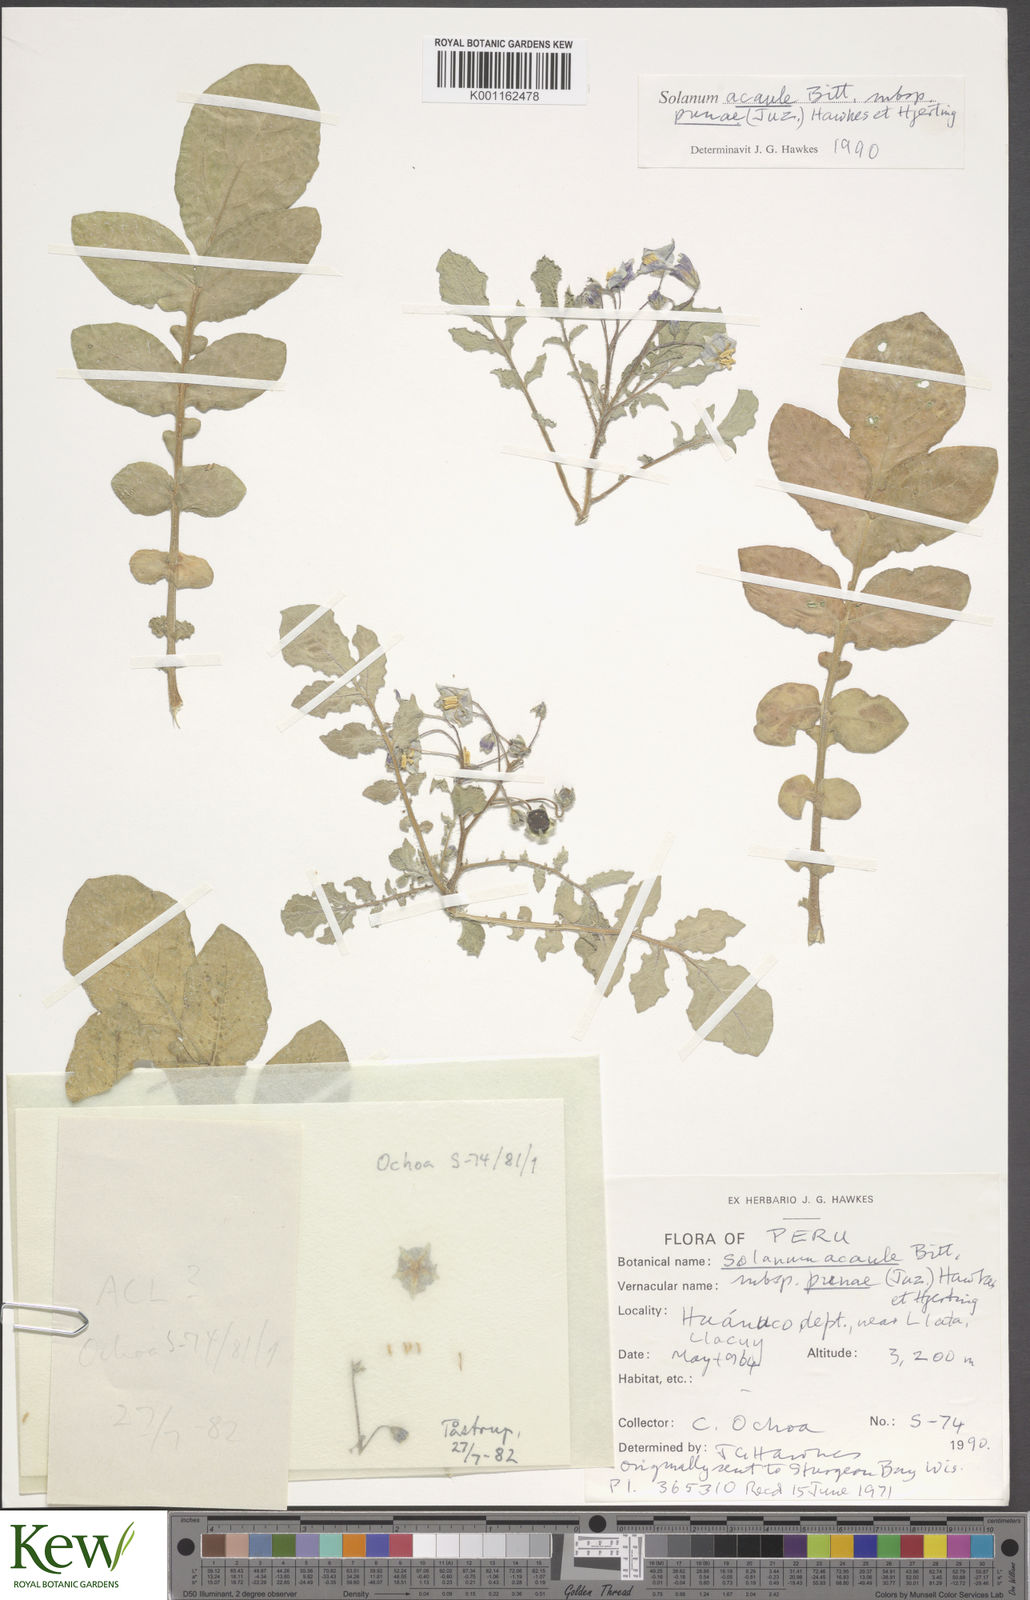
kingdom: Plantae
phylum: Tracheophyta
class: Magnoliopsida
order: Solanales
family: Solanaceae
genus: Solanum
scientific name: Solanum acaule
